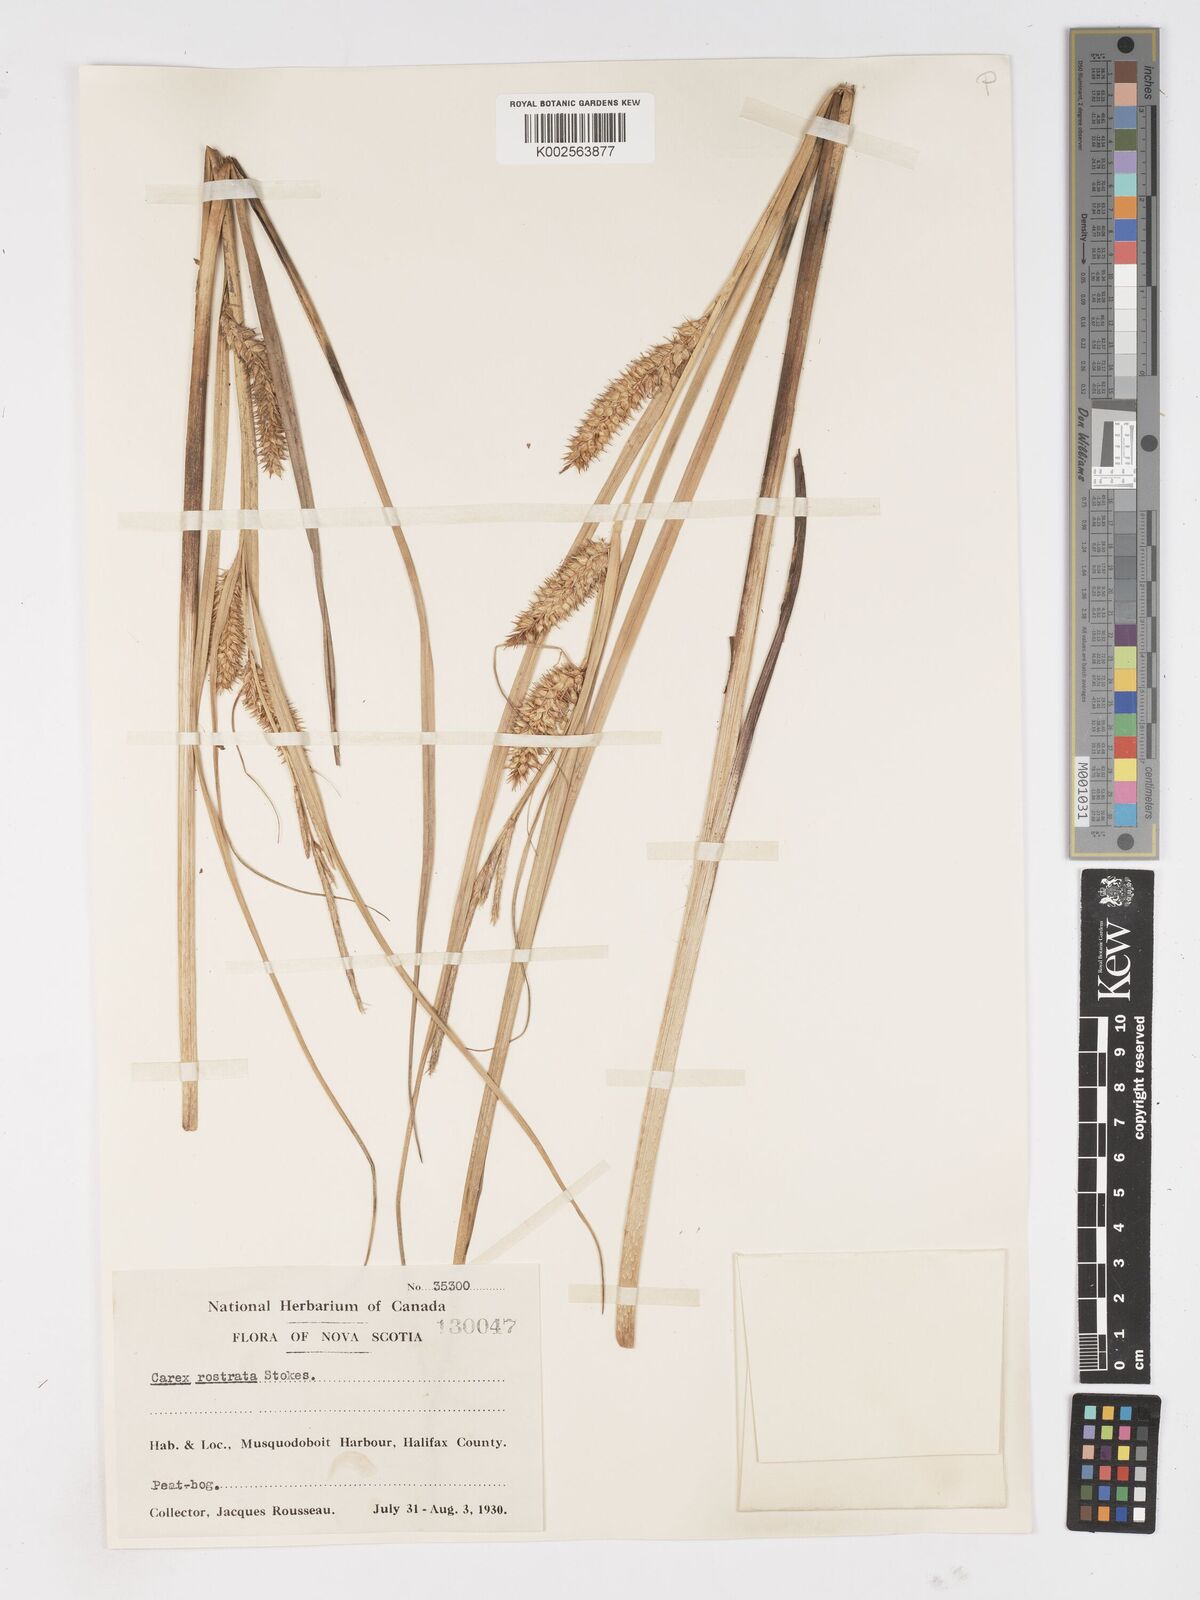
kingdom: Plantae
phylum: Tracheophyta
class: Liliopsida
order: Poales
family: Cyperaceae
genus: Carex
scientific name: Carex rostrata
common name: Bottle sedge
